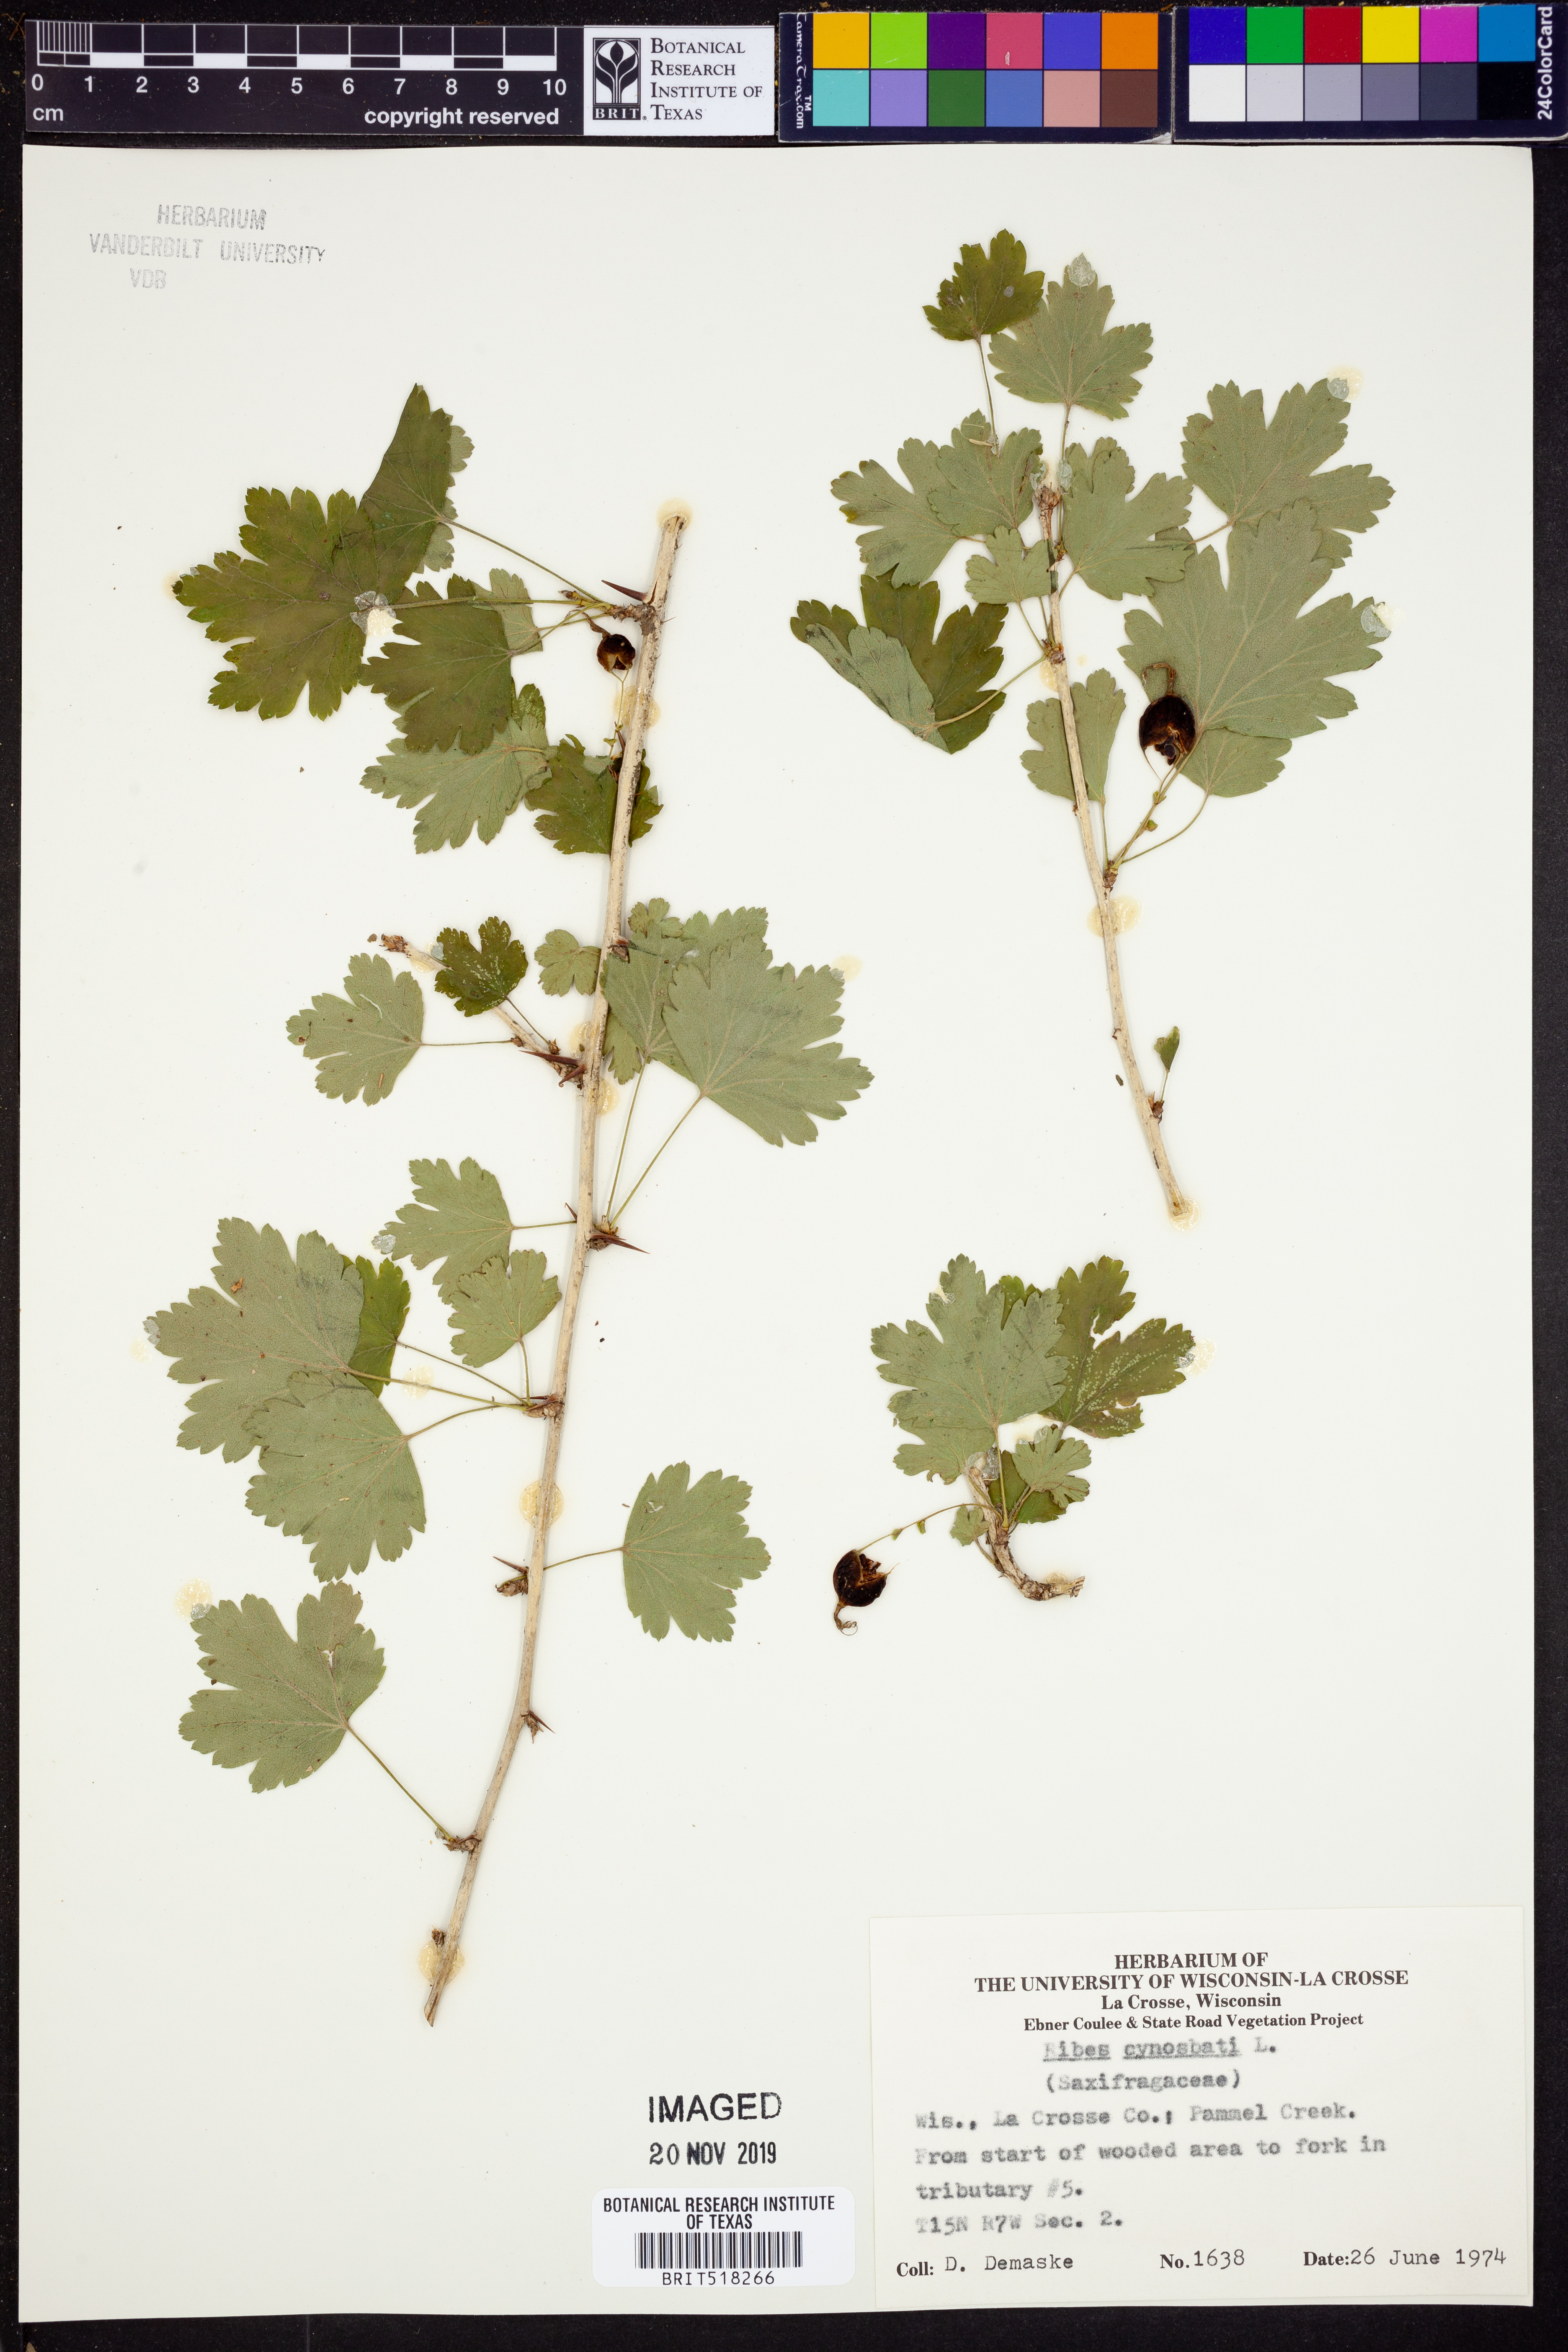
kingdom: Plantae
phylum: Tracheophyta
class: Magnoliopsida
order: Saxifragales
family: Grossulariaceae
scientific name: Grossulariaceae
